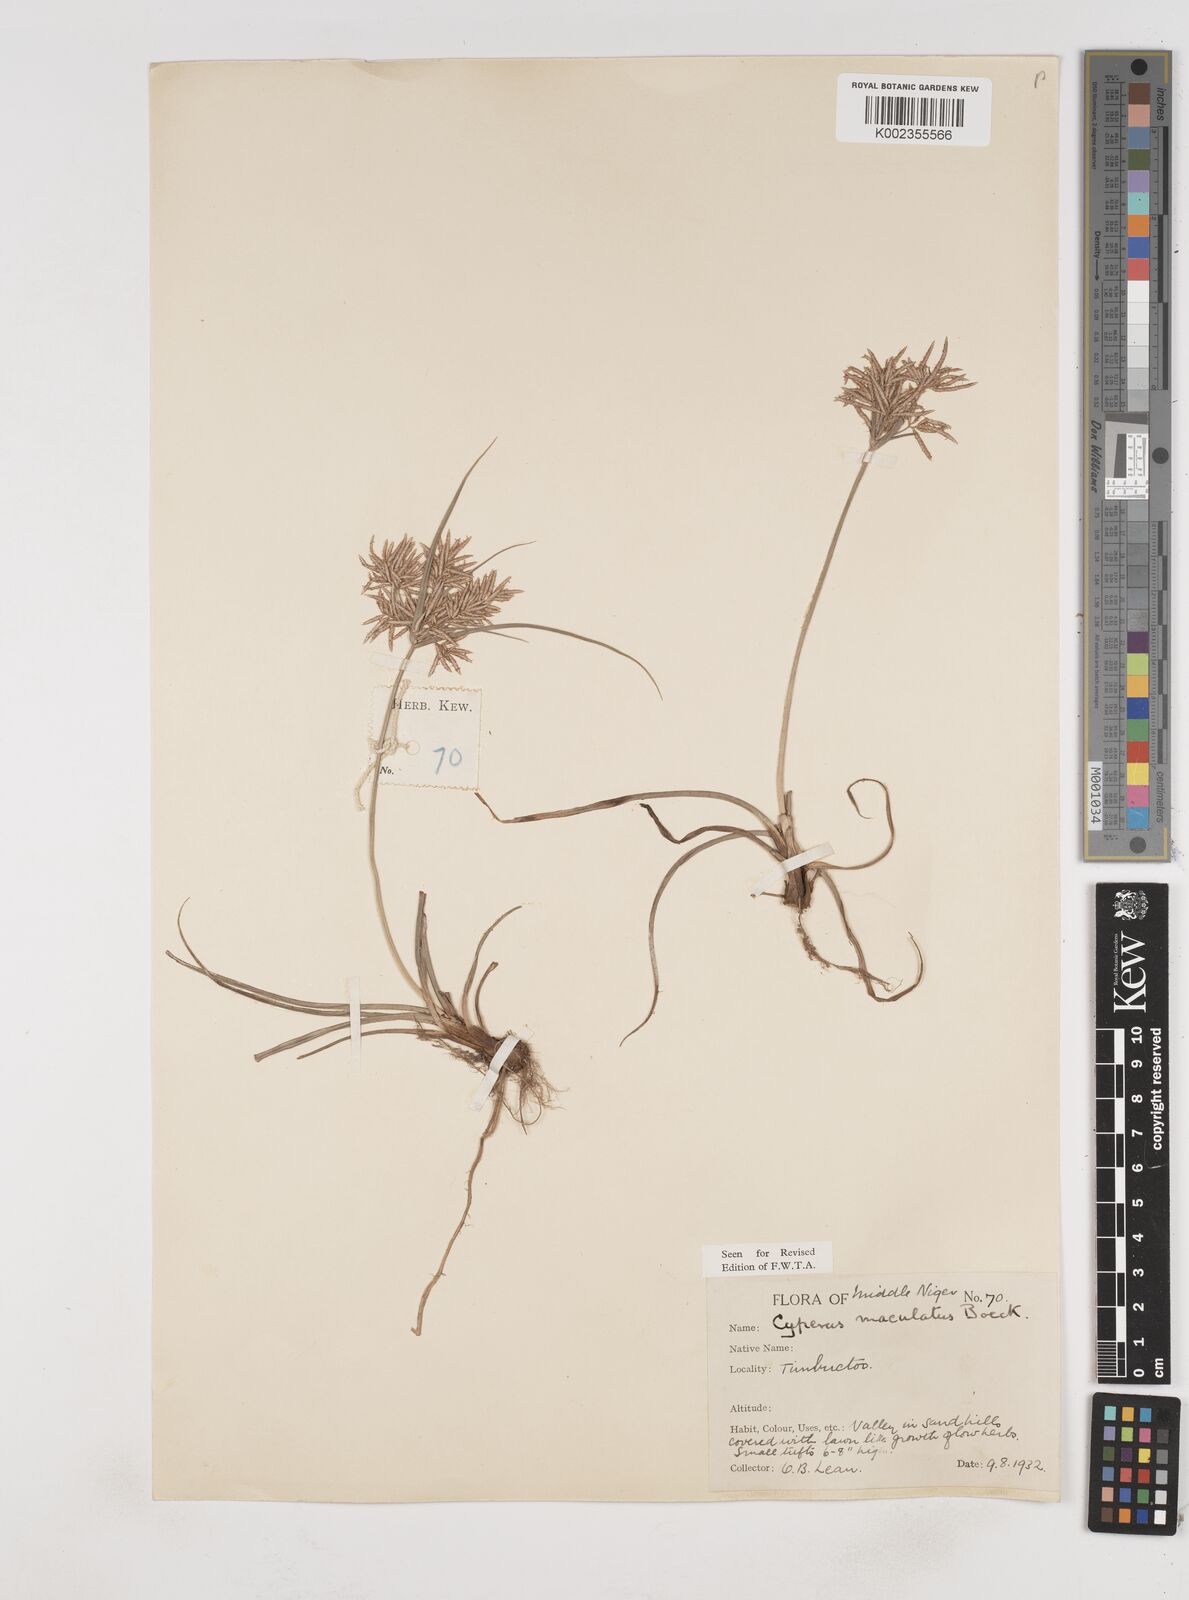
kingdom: Plantae
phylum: Tracheophyta
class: Liliopsida
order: Poales
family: Cyperaceae
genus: Cyperus
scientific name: Cyperus maculatus
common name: Maculated sedge
